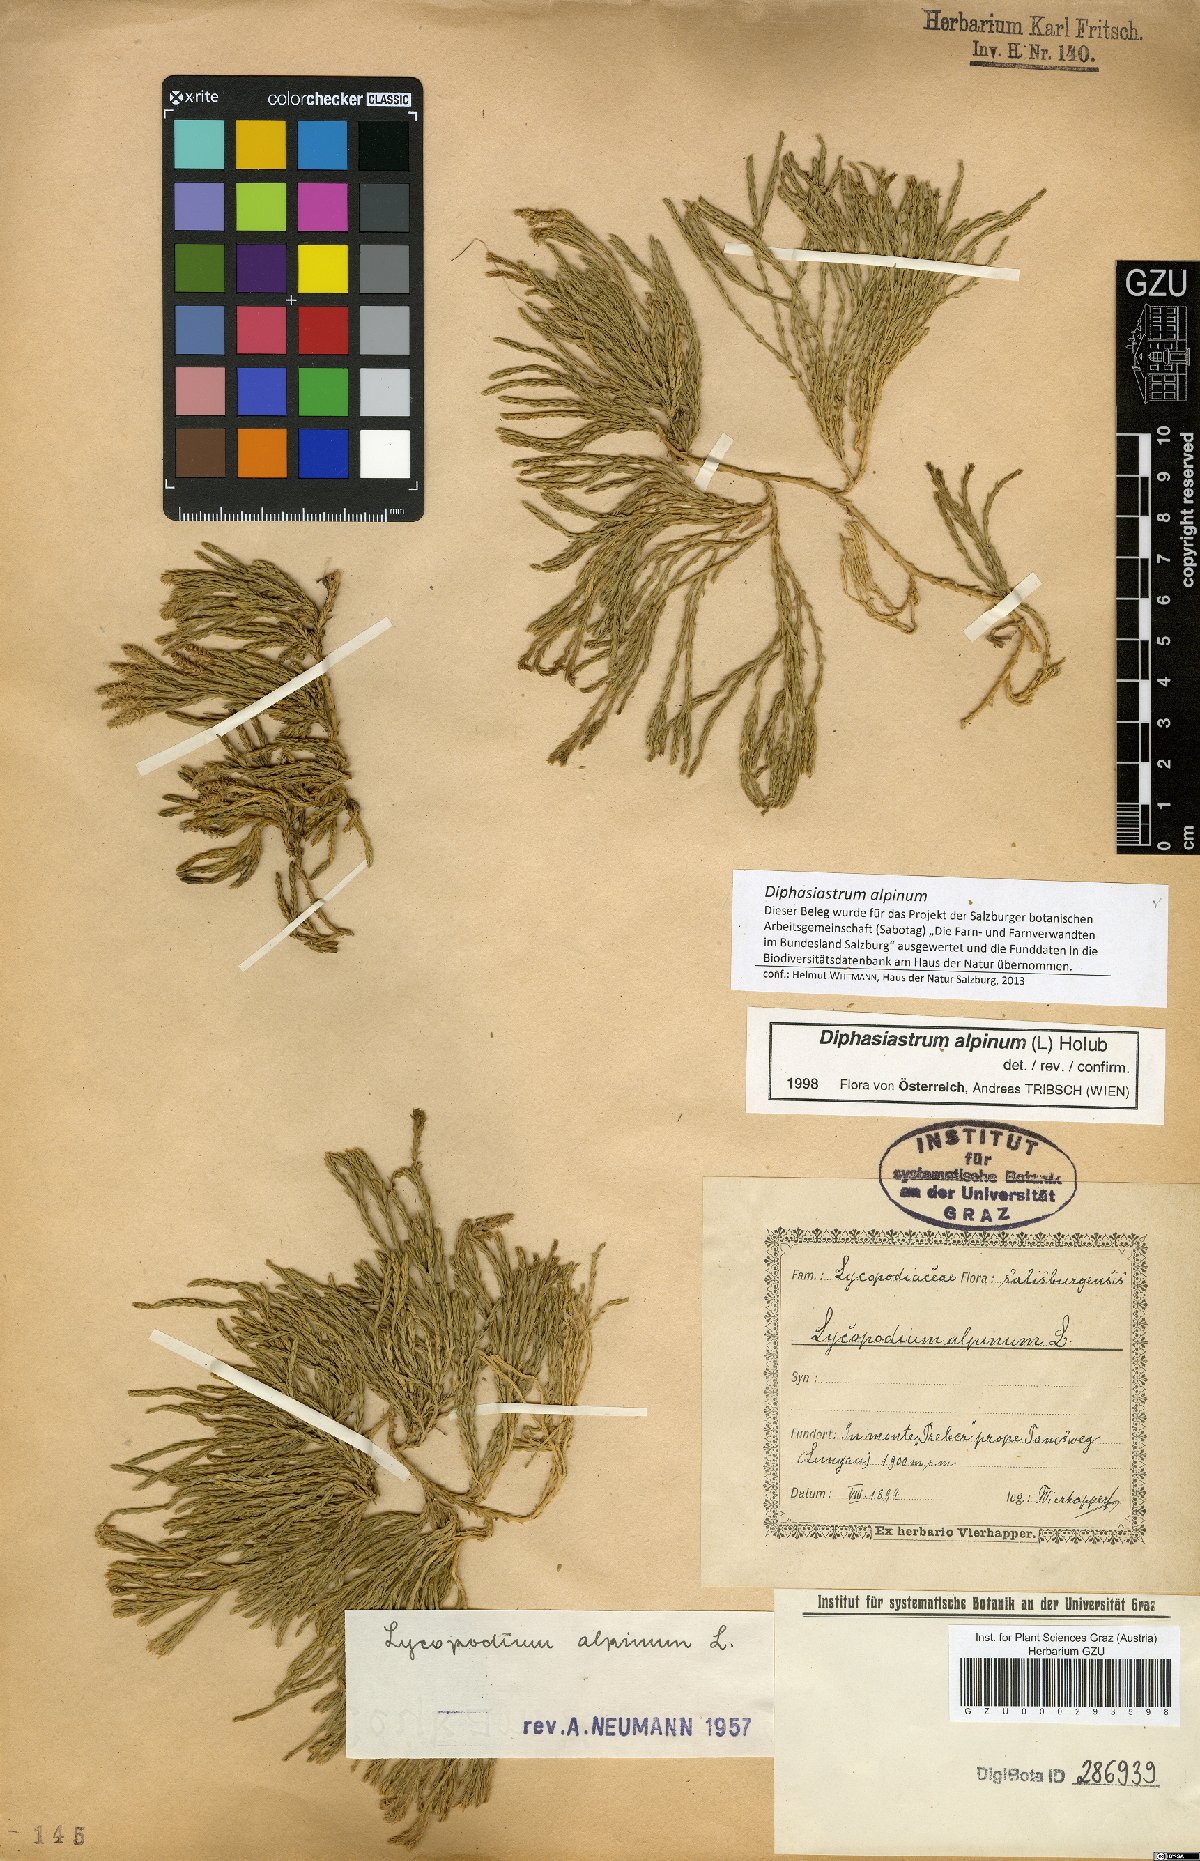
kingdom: Plantae
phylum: Tracheophyta
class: Lycopodiopsida
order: Lycopodiales
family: Lycopodiaceae
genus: Diphasiastrum
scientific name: Diphasiastrum alpinum
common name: Alpine clubmoss
